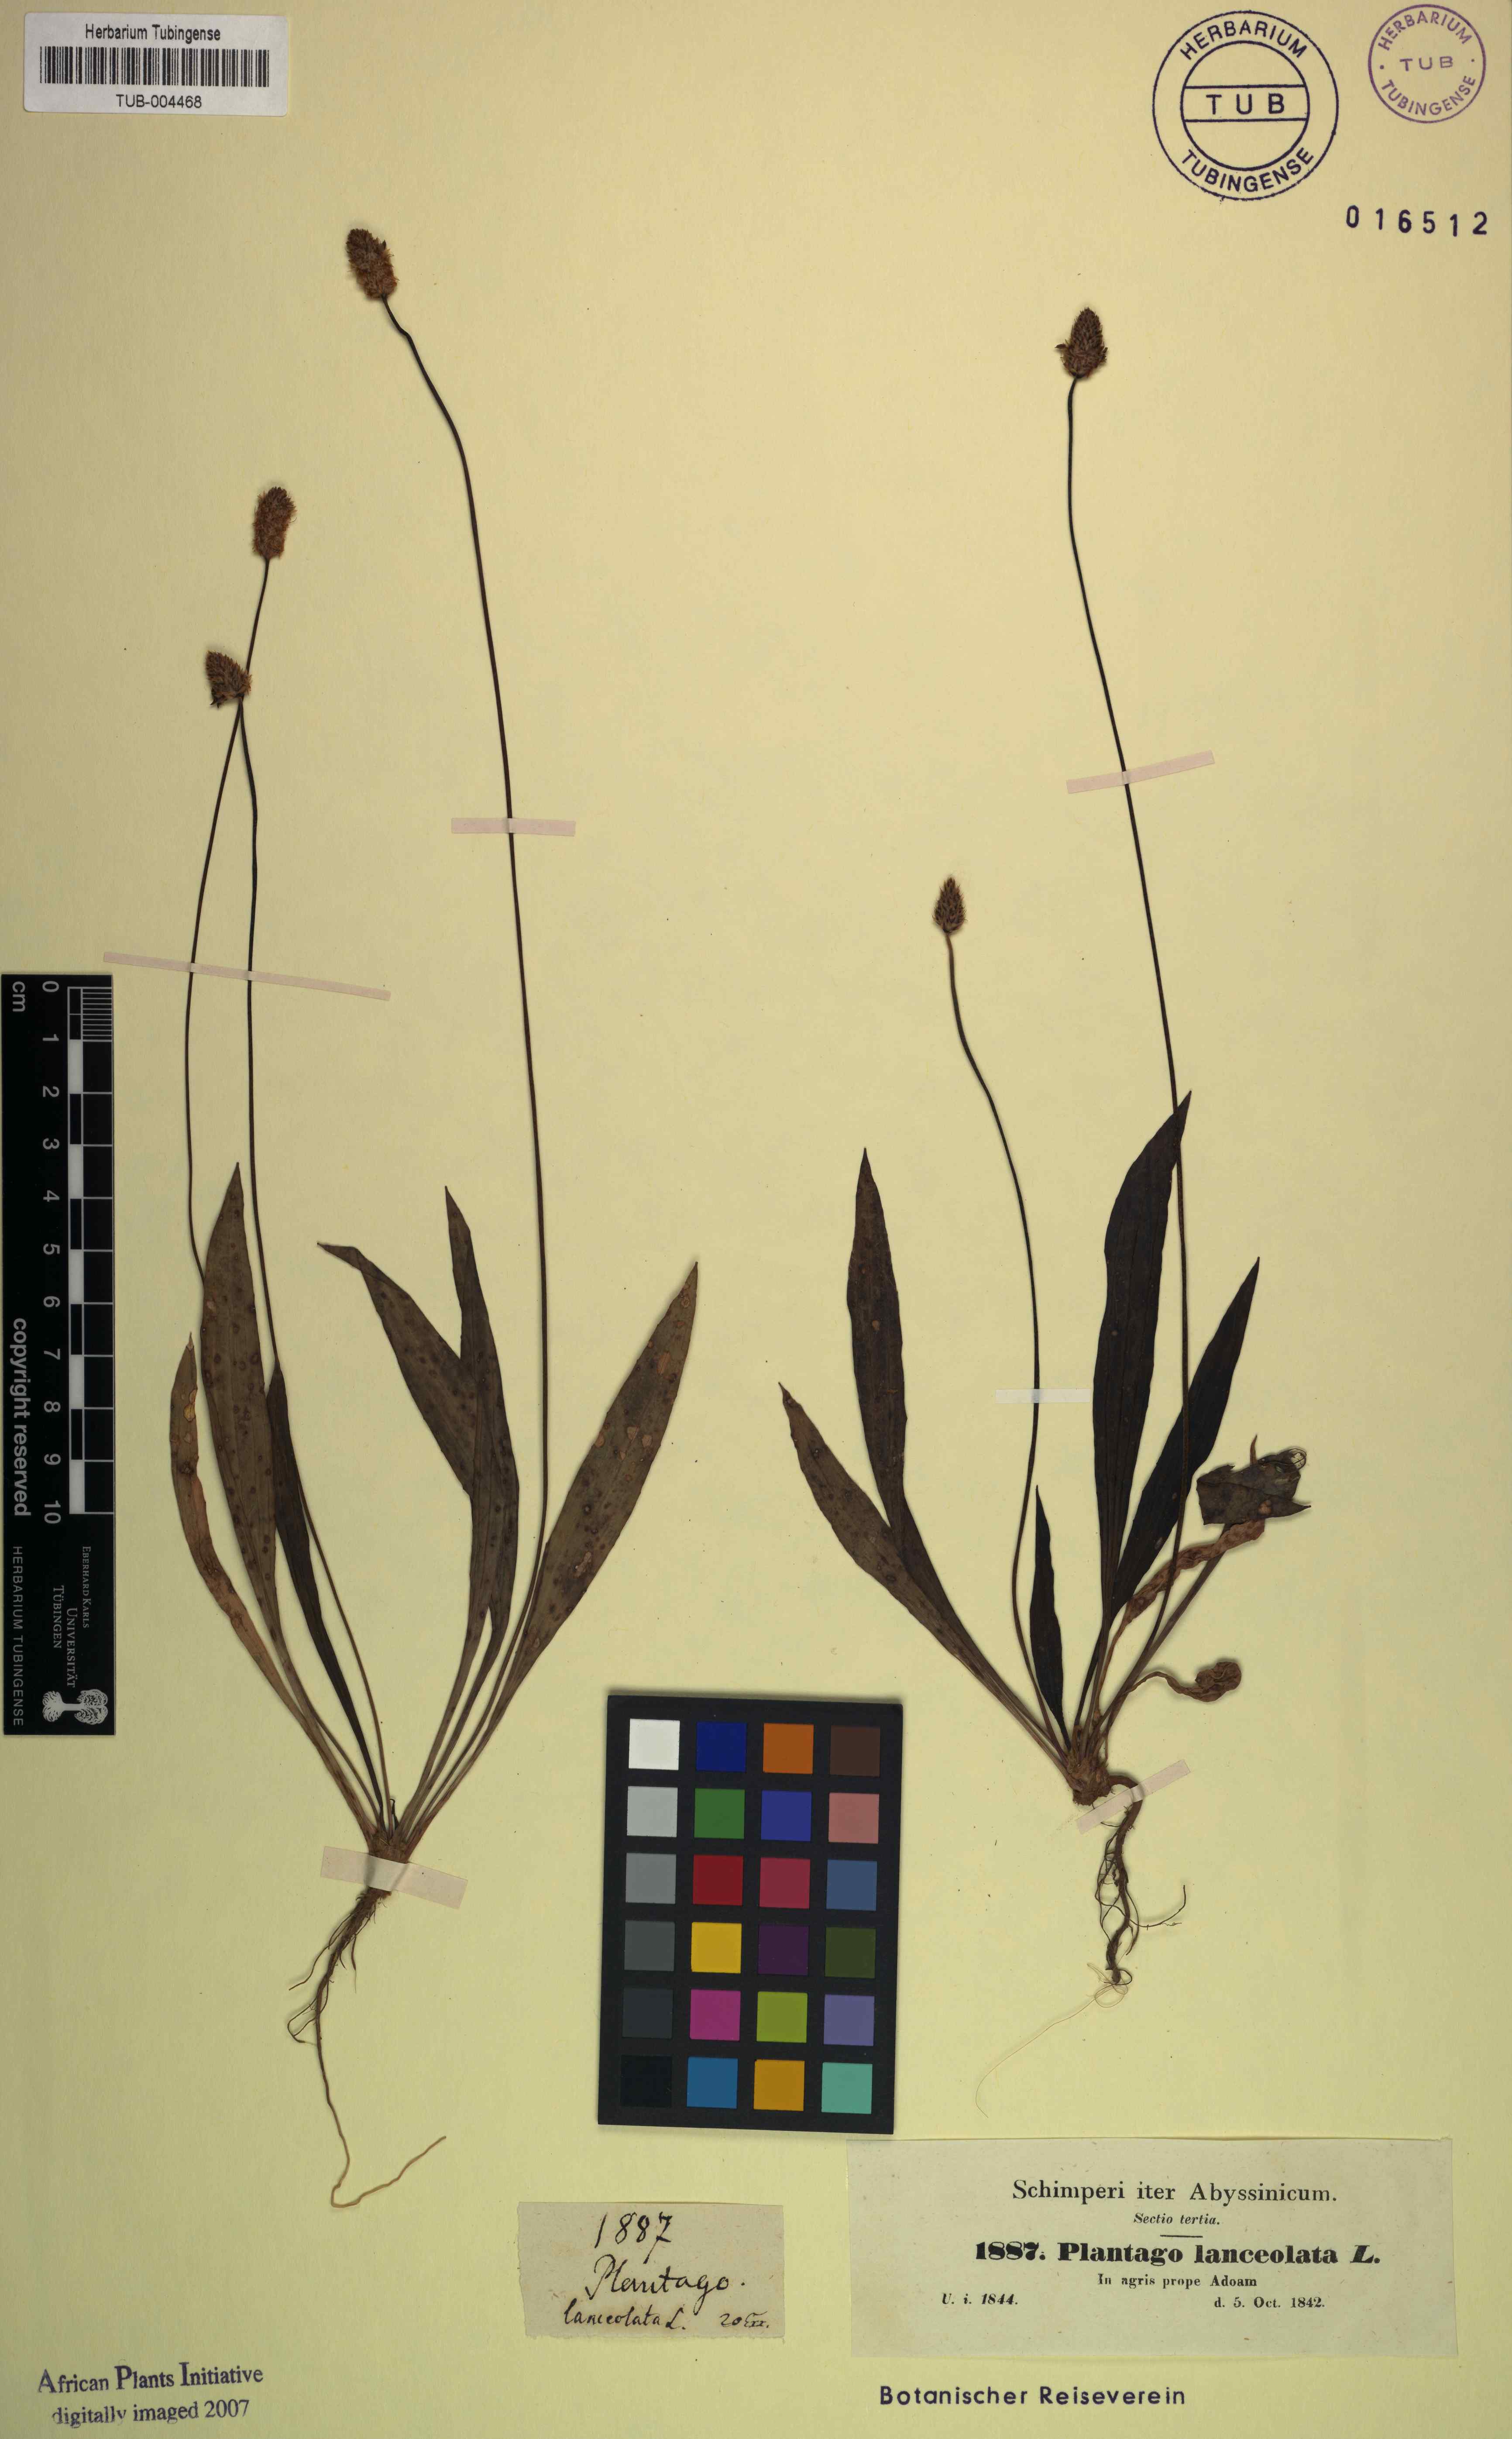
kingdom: Plantae
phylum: Tracheophyta
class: Magnoliopsida
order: Lamiales
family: Plantaginaceae
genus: Plantago
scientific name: Plantago lanceolata
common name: Ribwort plantain
